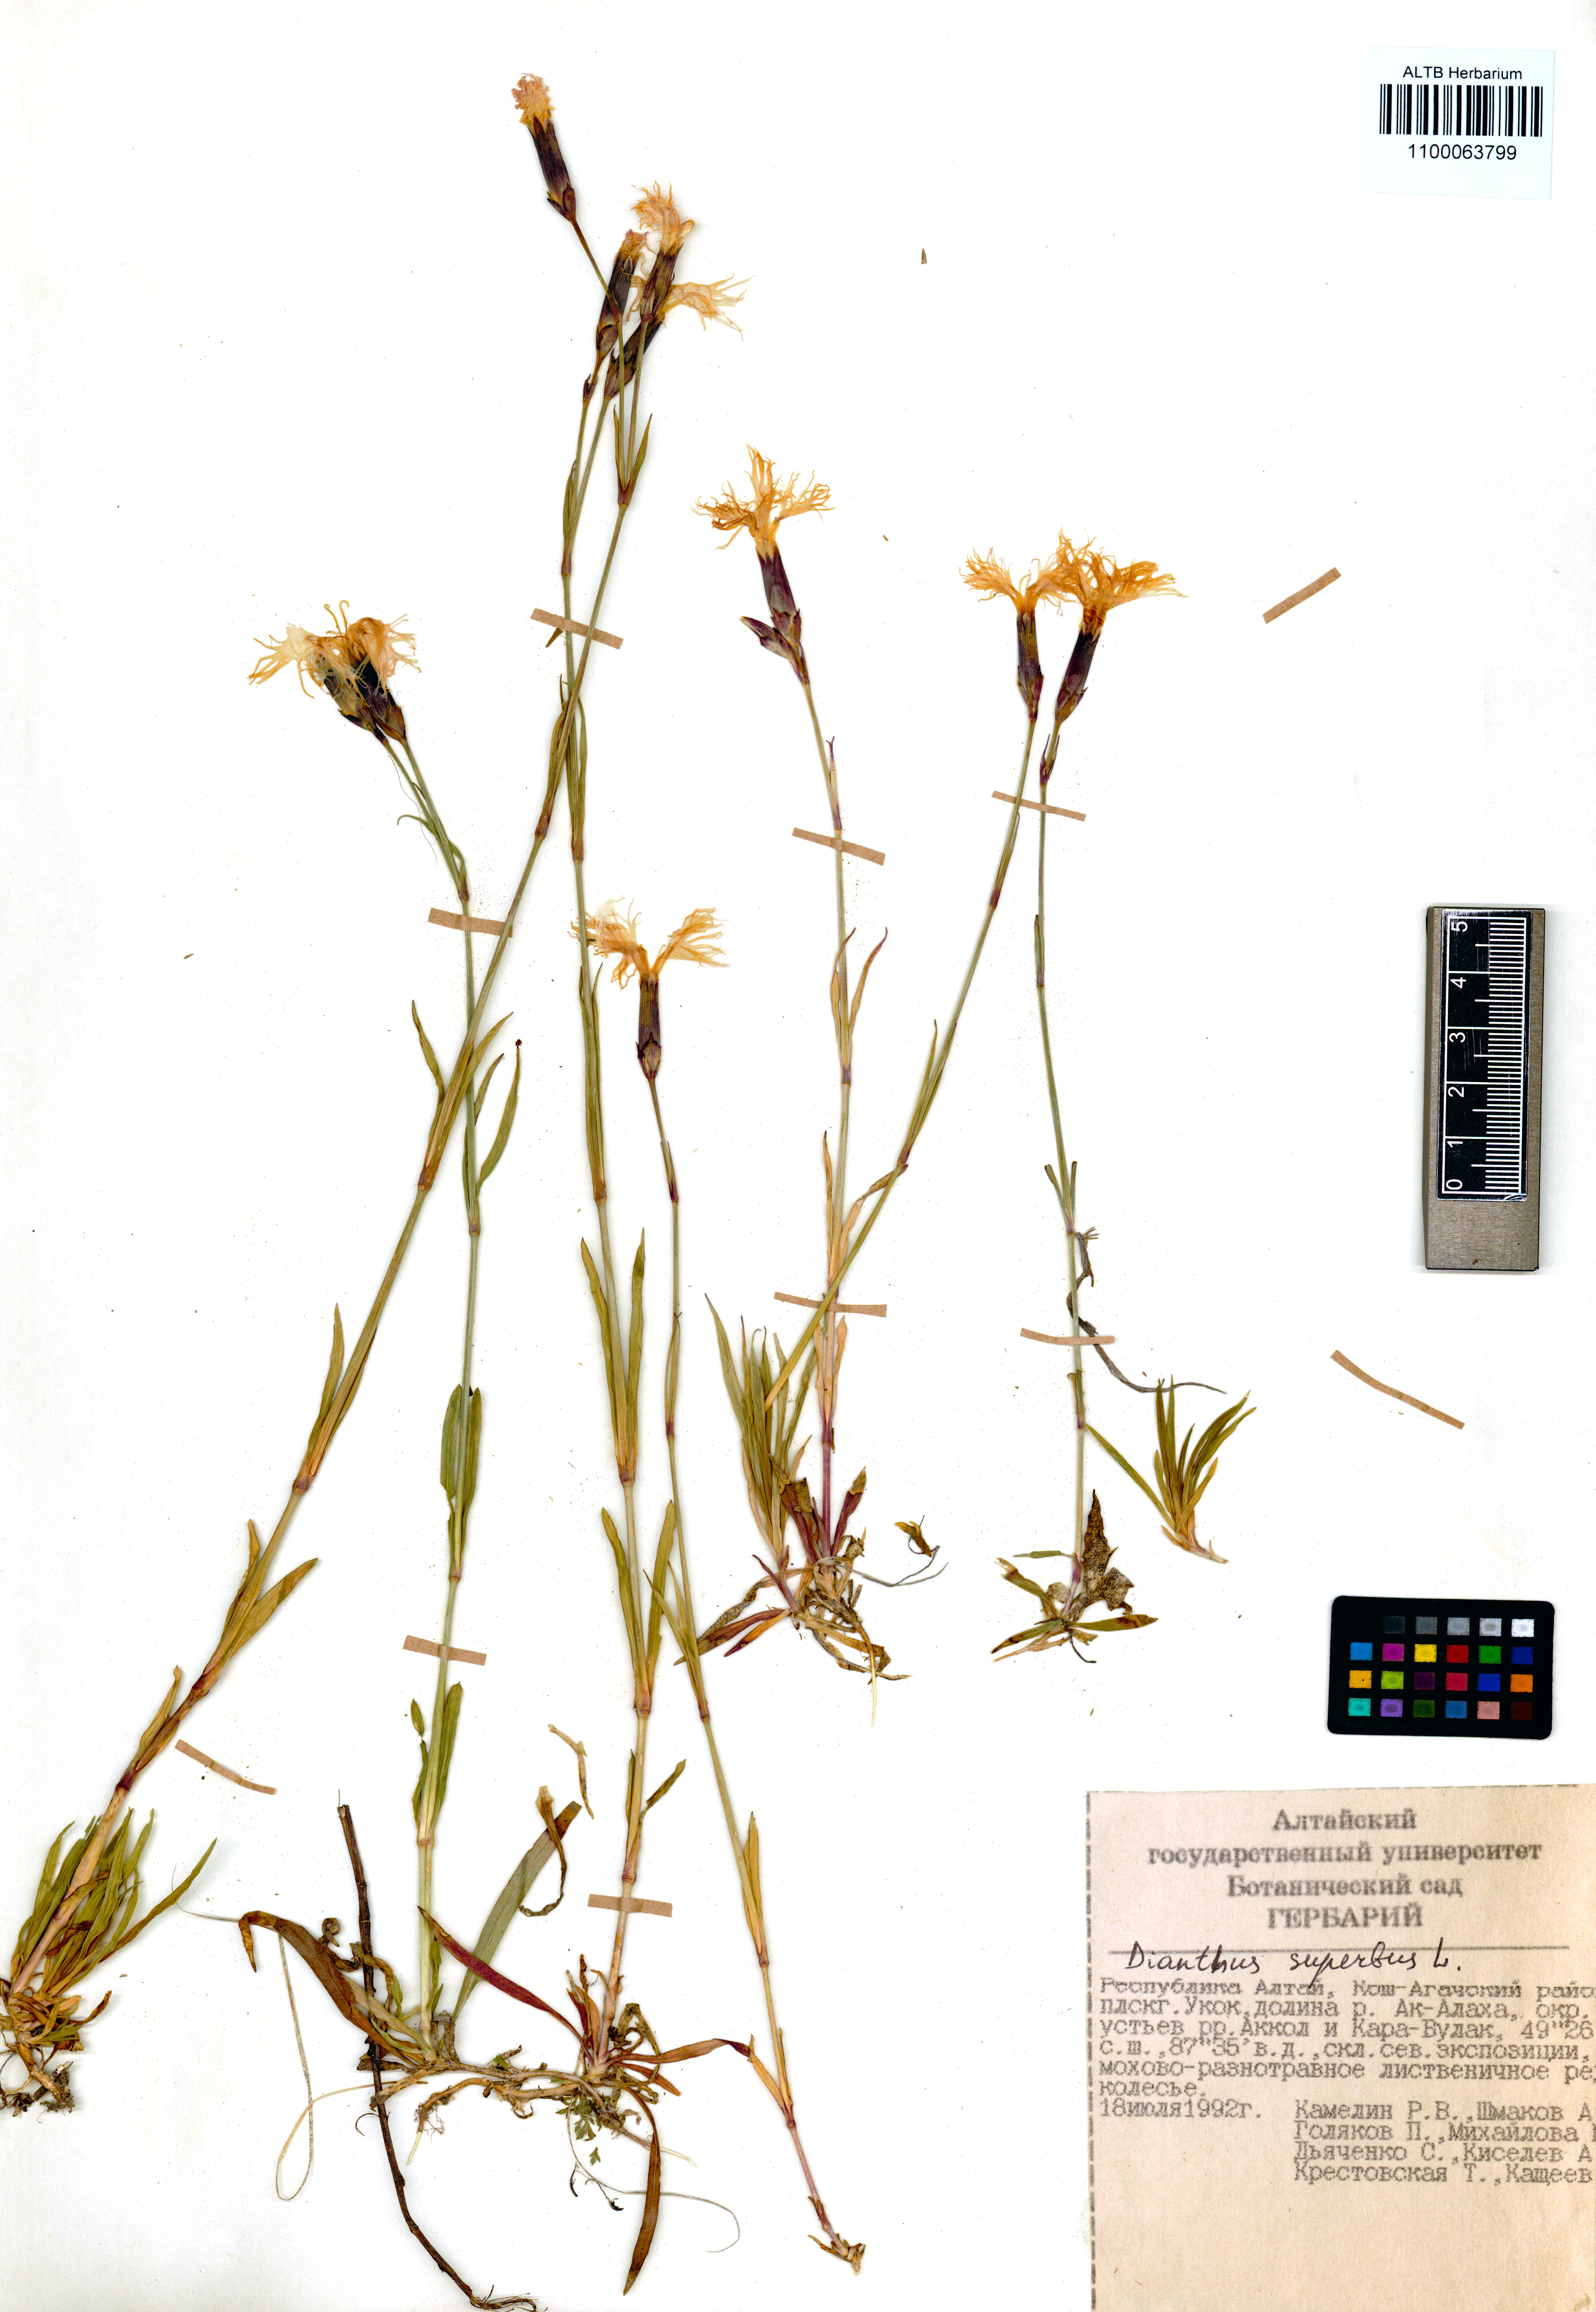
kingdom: Plantae
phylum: Tracheophyta
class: Magnoliopsida
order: Caryophyllales
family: Caryophyllaceae
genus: Dianthus
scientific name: Dianthus superbus
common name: Fringed pink
